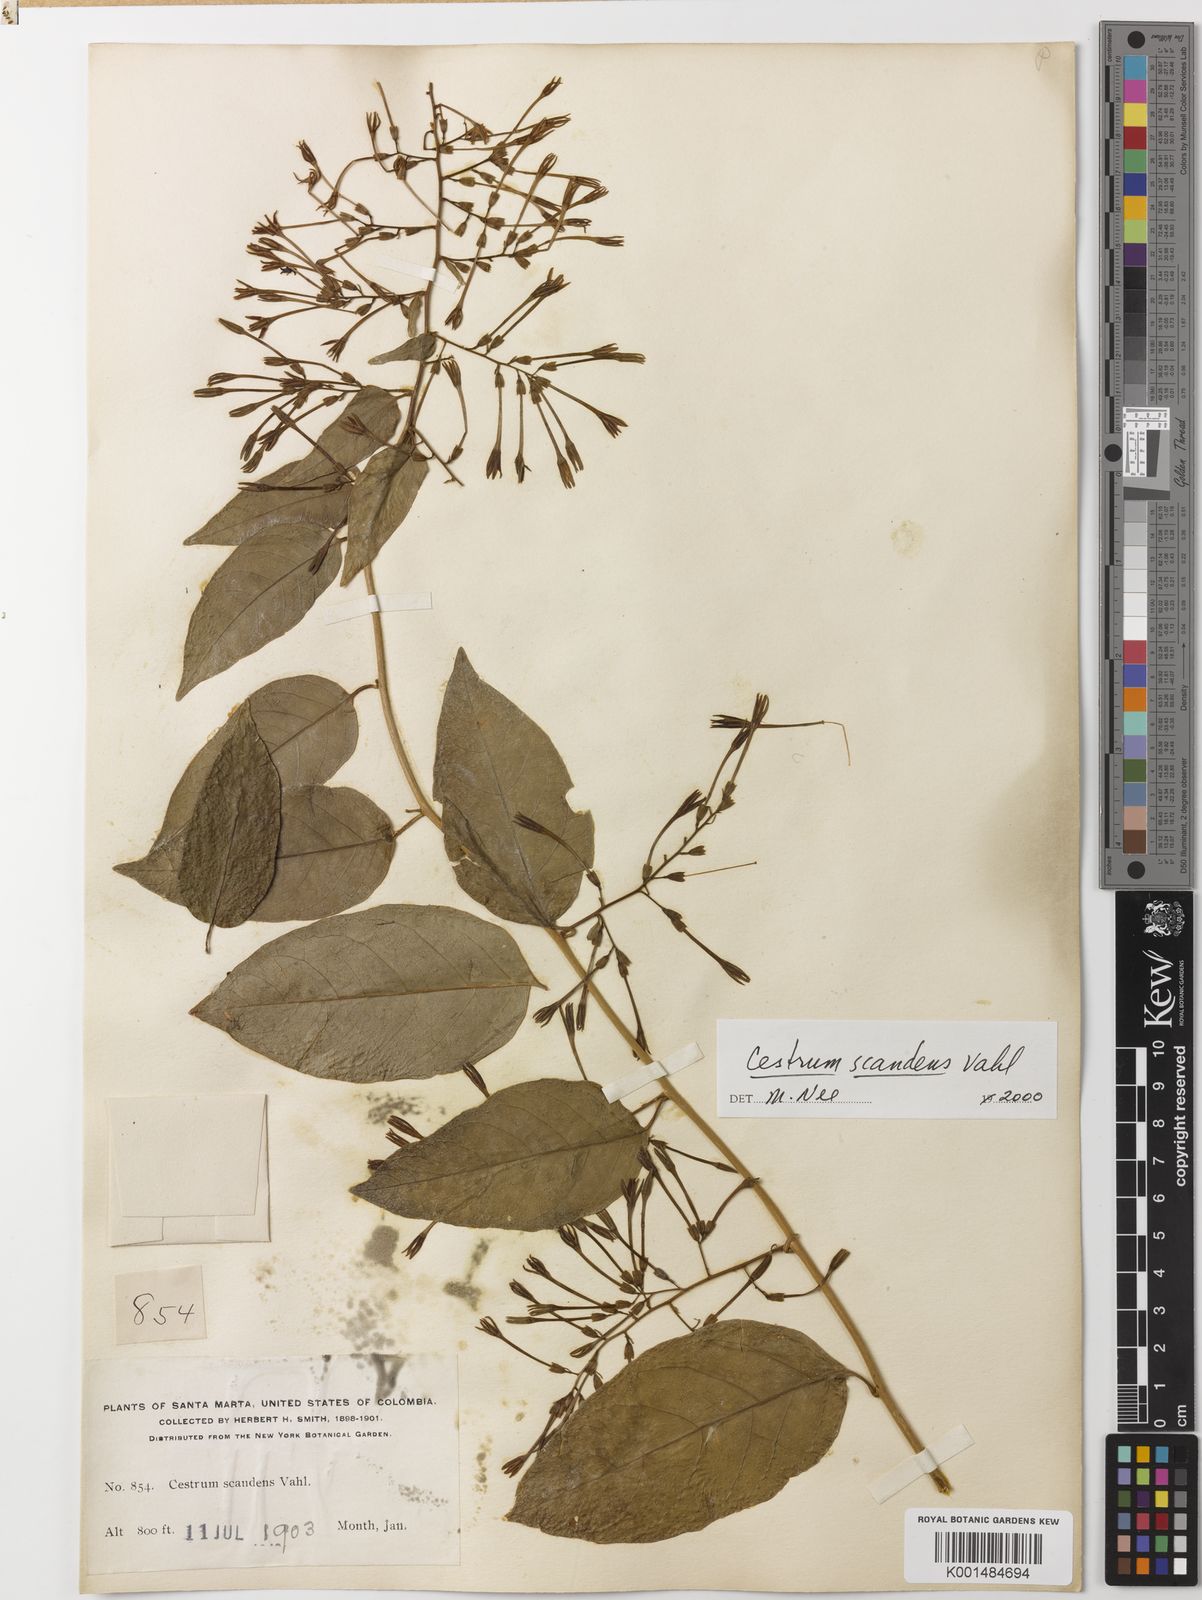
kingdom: Plantae
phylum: Tracheophyta
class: Magnoliopsida
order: Solanales
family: Solanaceae
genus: Cestrum
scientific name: Cestrum scandens
